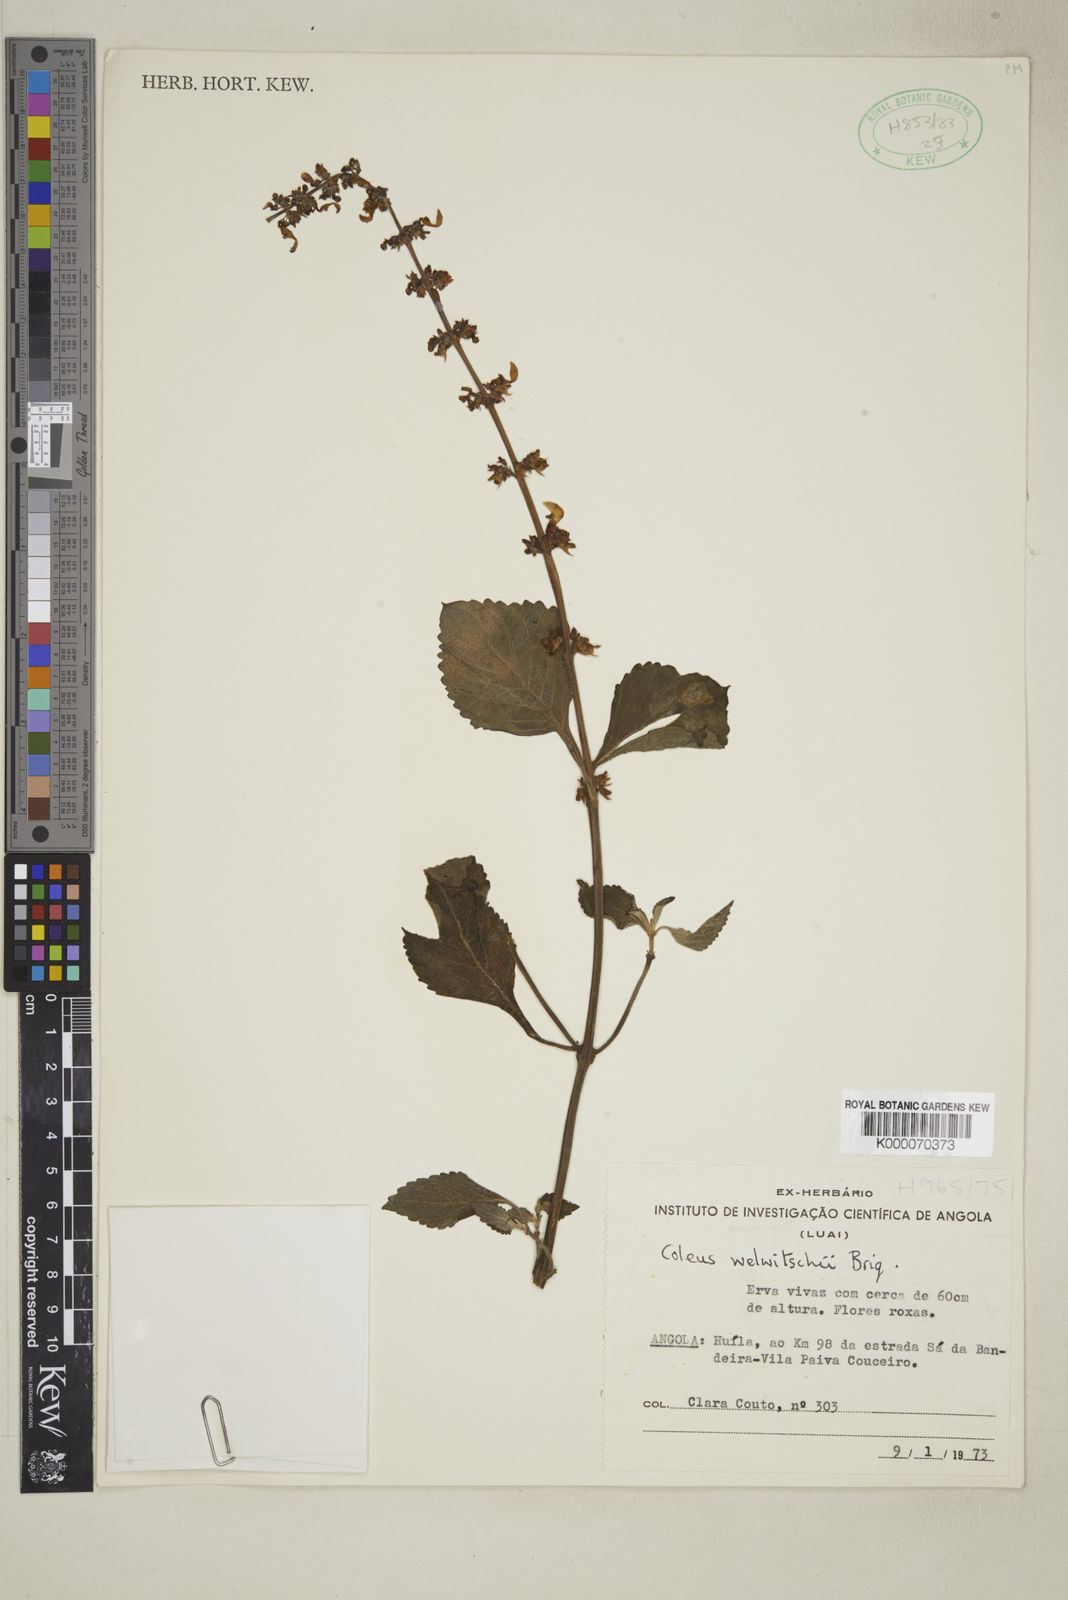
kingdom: Plantae
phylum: Tracheophyta
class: Magnoliopsida
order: Lamiales
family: Lamiaceae
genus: Coleus
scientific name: Coleus welwitschii
